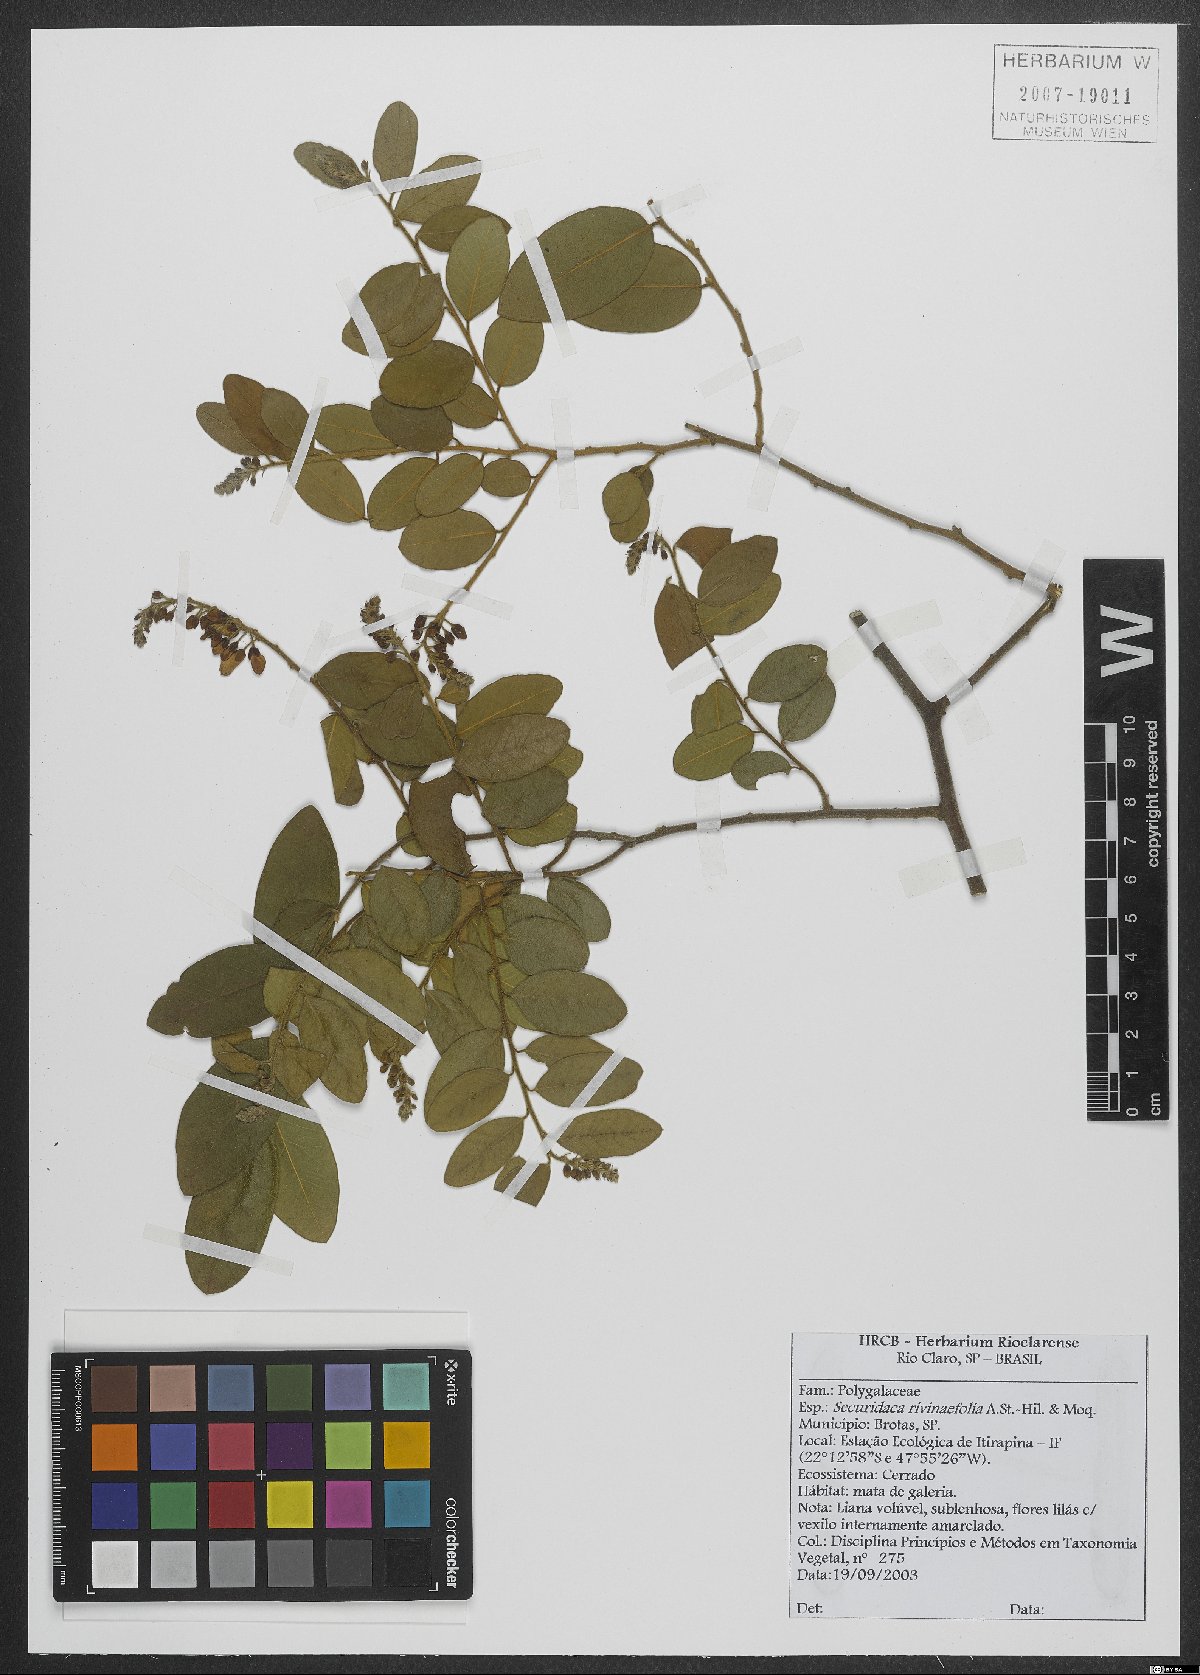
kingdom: Plantae
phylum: Tracheophyta
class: Magnoliopsida
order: Fabales
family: Polygalaceae
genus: Securidaca
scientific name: Securidaca rivinifolia
